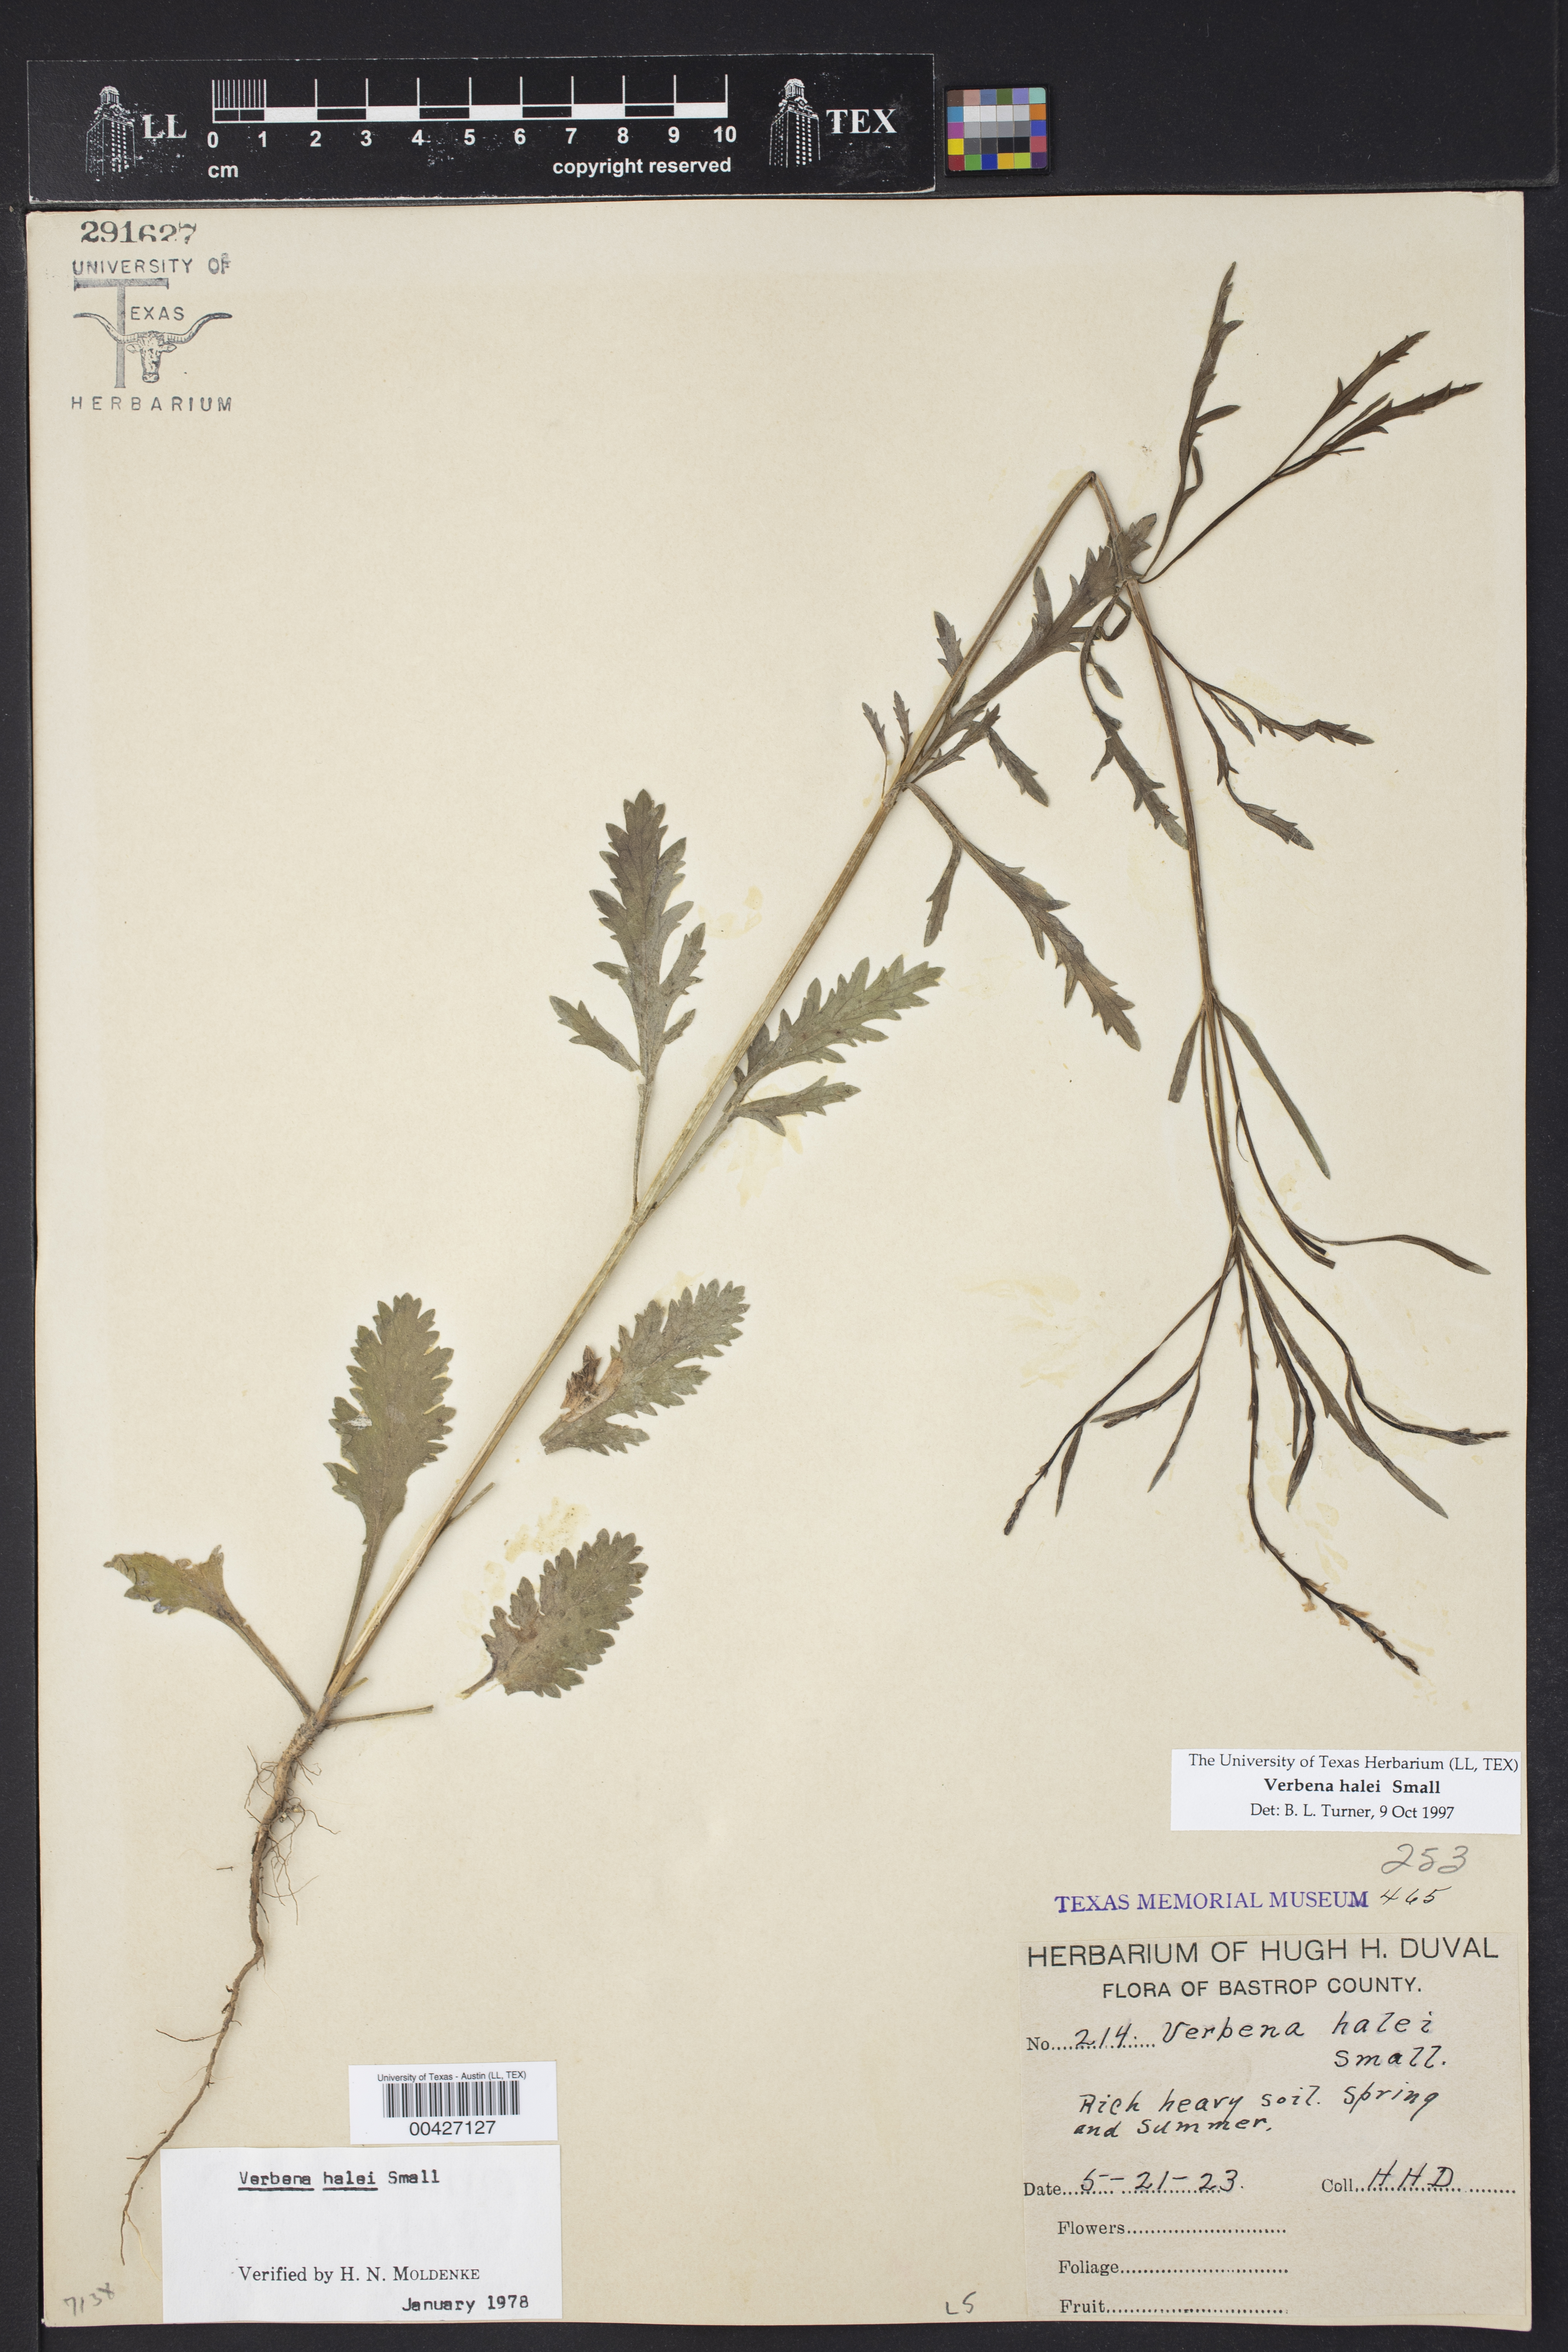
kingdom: Plantae
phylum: Tracheophyta
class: Magnoliopsida
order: Lamiales
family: Verbenaceae
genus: Verbena
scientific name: Verbena halei
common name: Texas vervain
